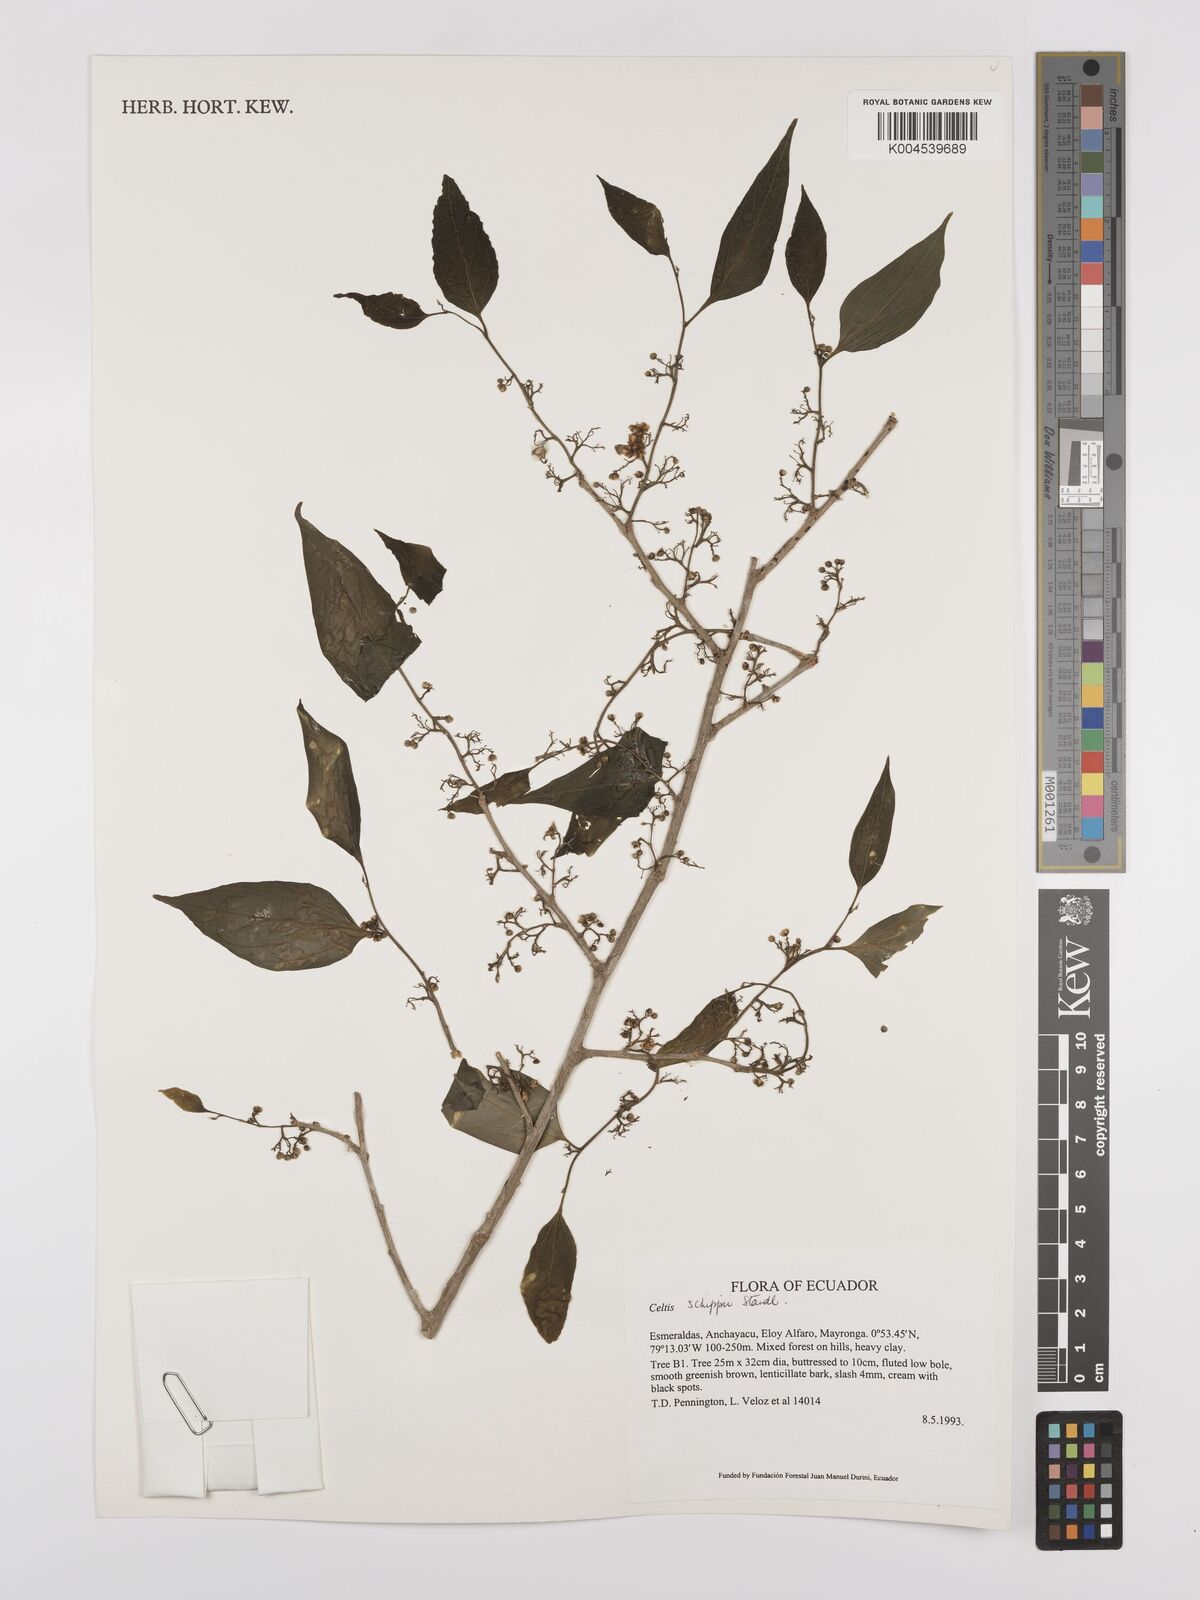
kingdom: Plantae
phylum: Tracheophyta
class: Magnoliopsida
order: Rosales
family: Cannabaceae
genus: Celtis
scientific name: Celtis schippii
